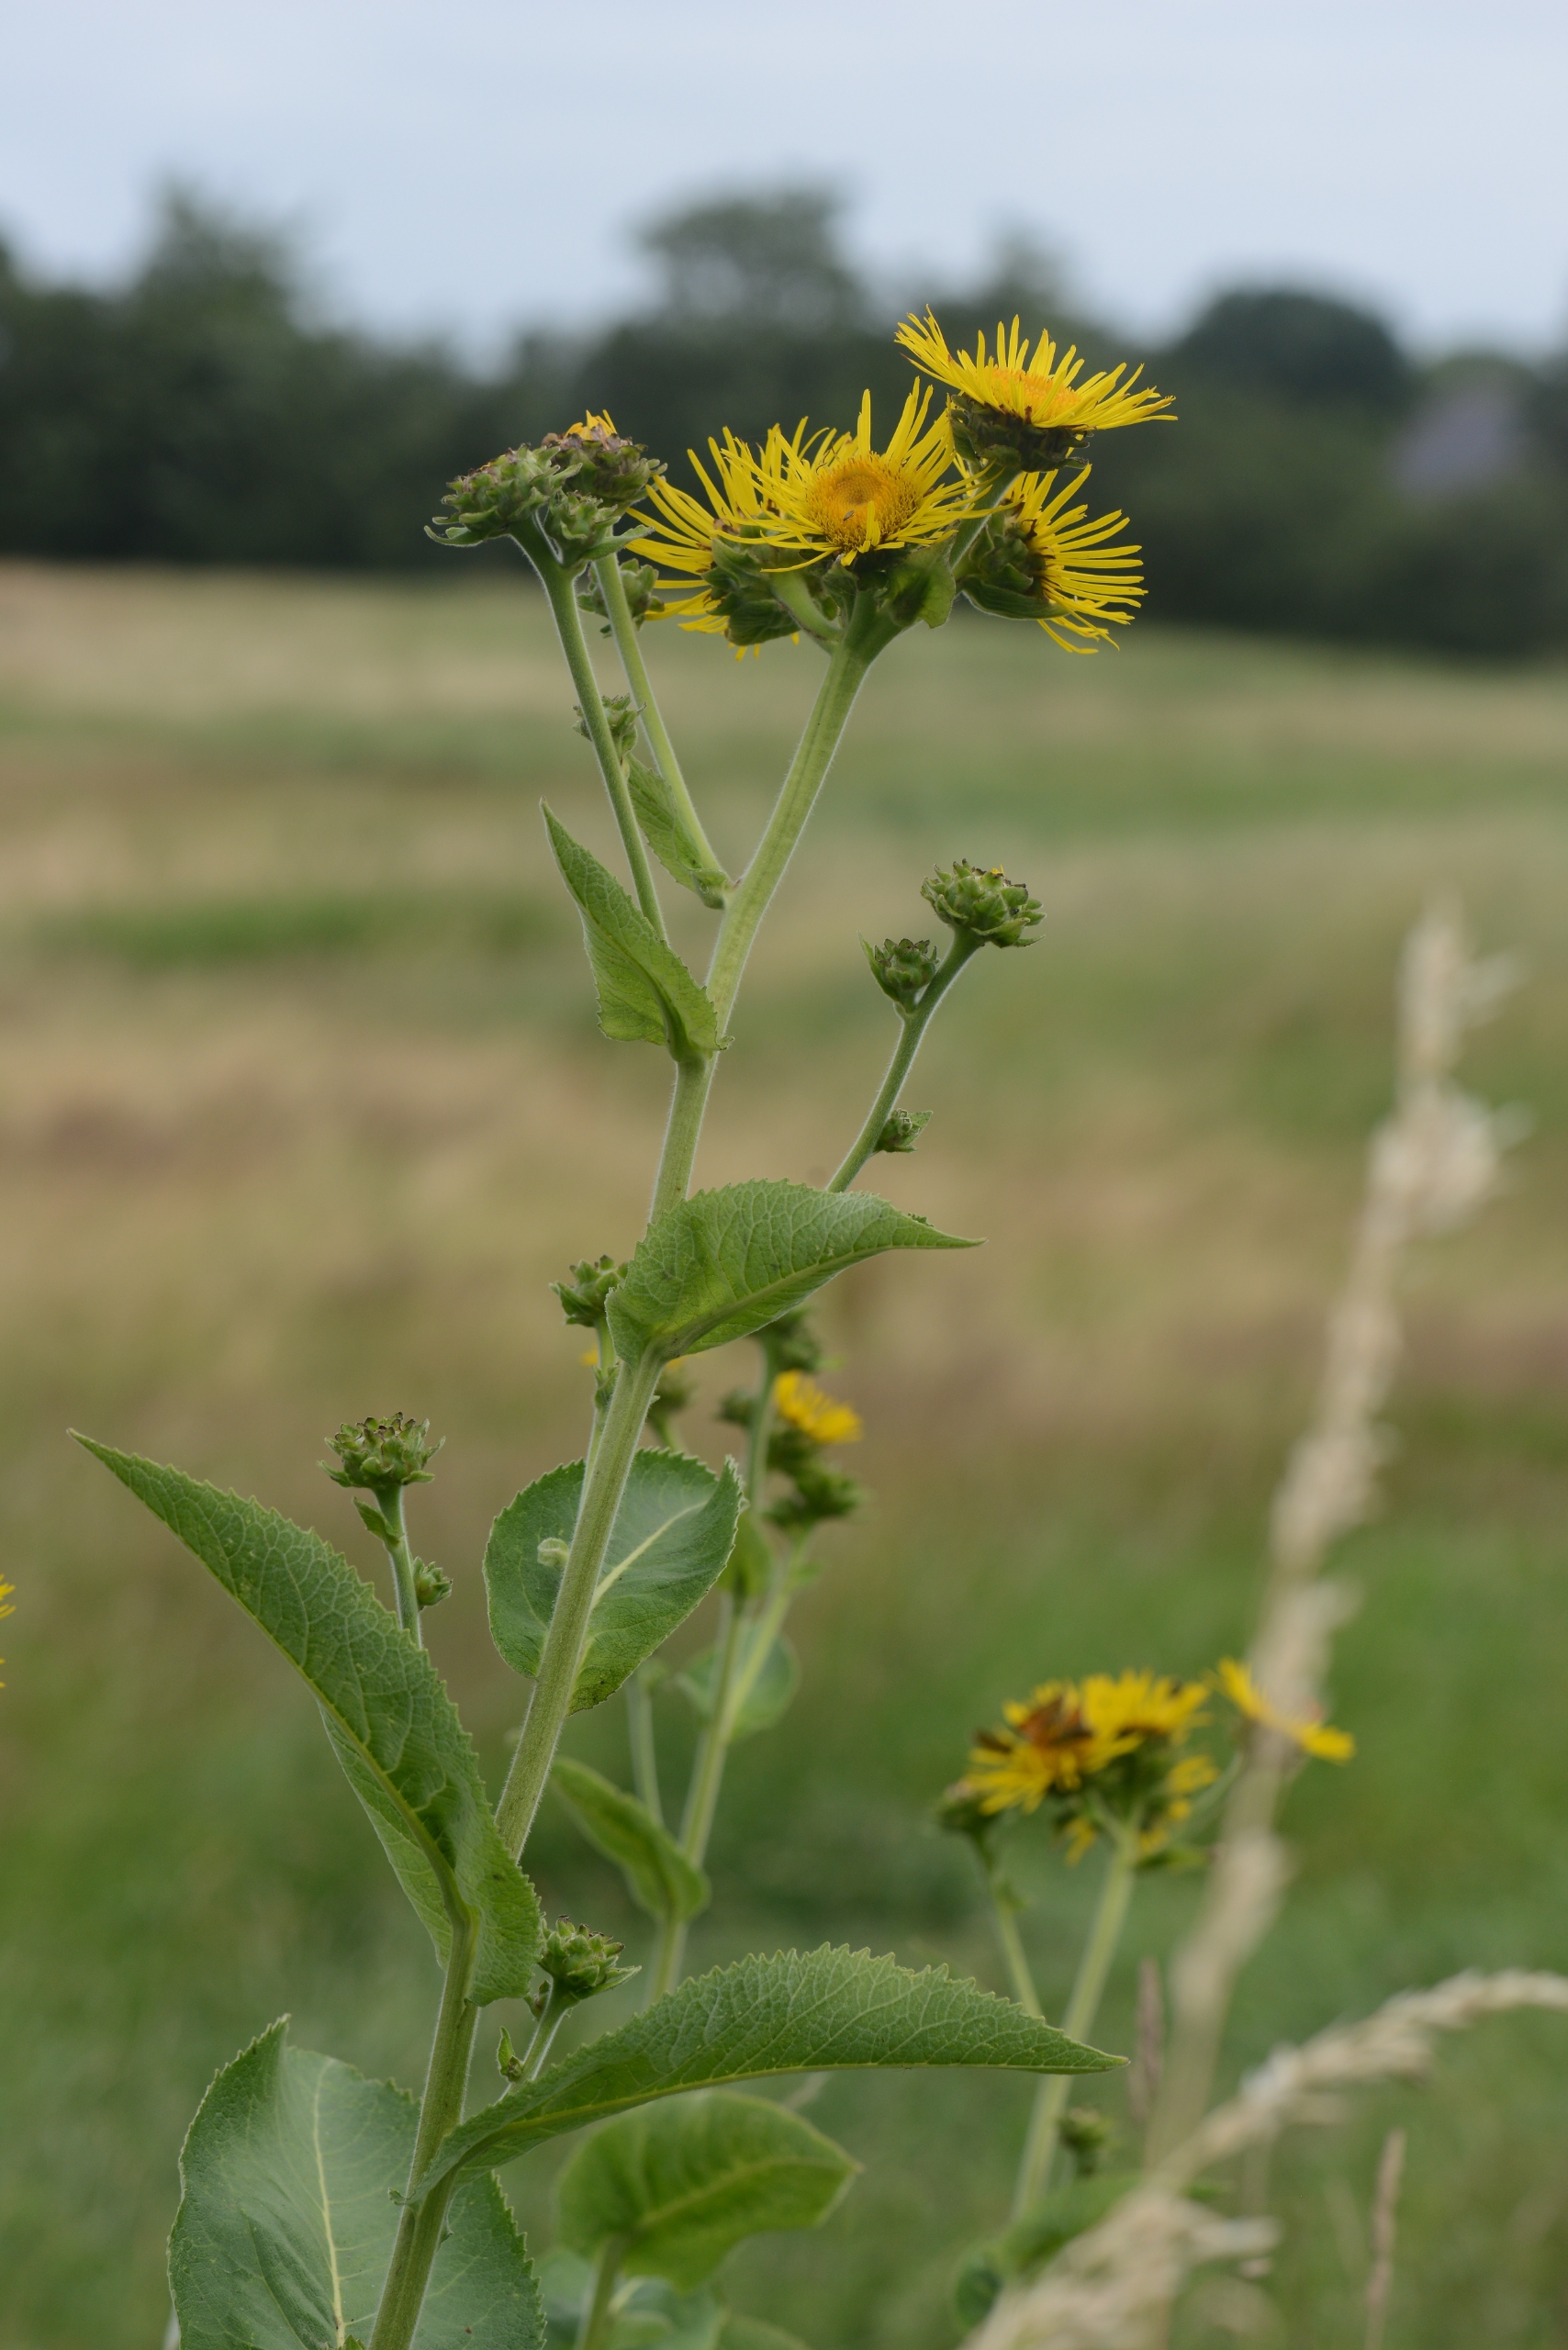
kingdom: Plantae
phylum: Tracheophyta
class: Magnoliopsida
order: Asterales
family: Asteraceae
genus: Inula
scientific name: Inula helenium
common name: Læge-alant
